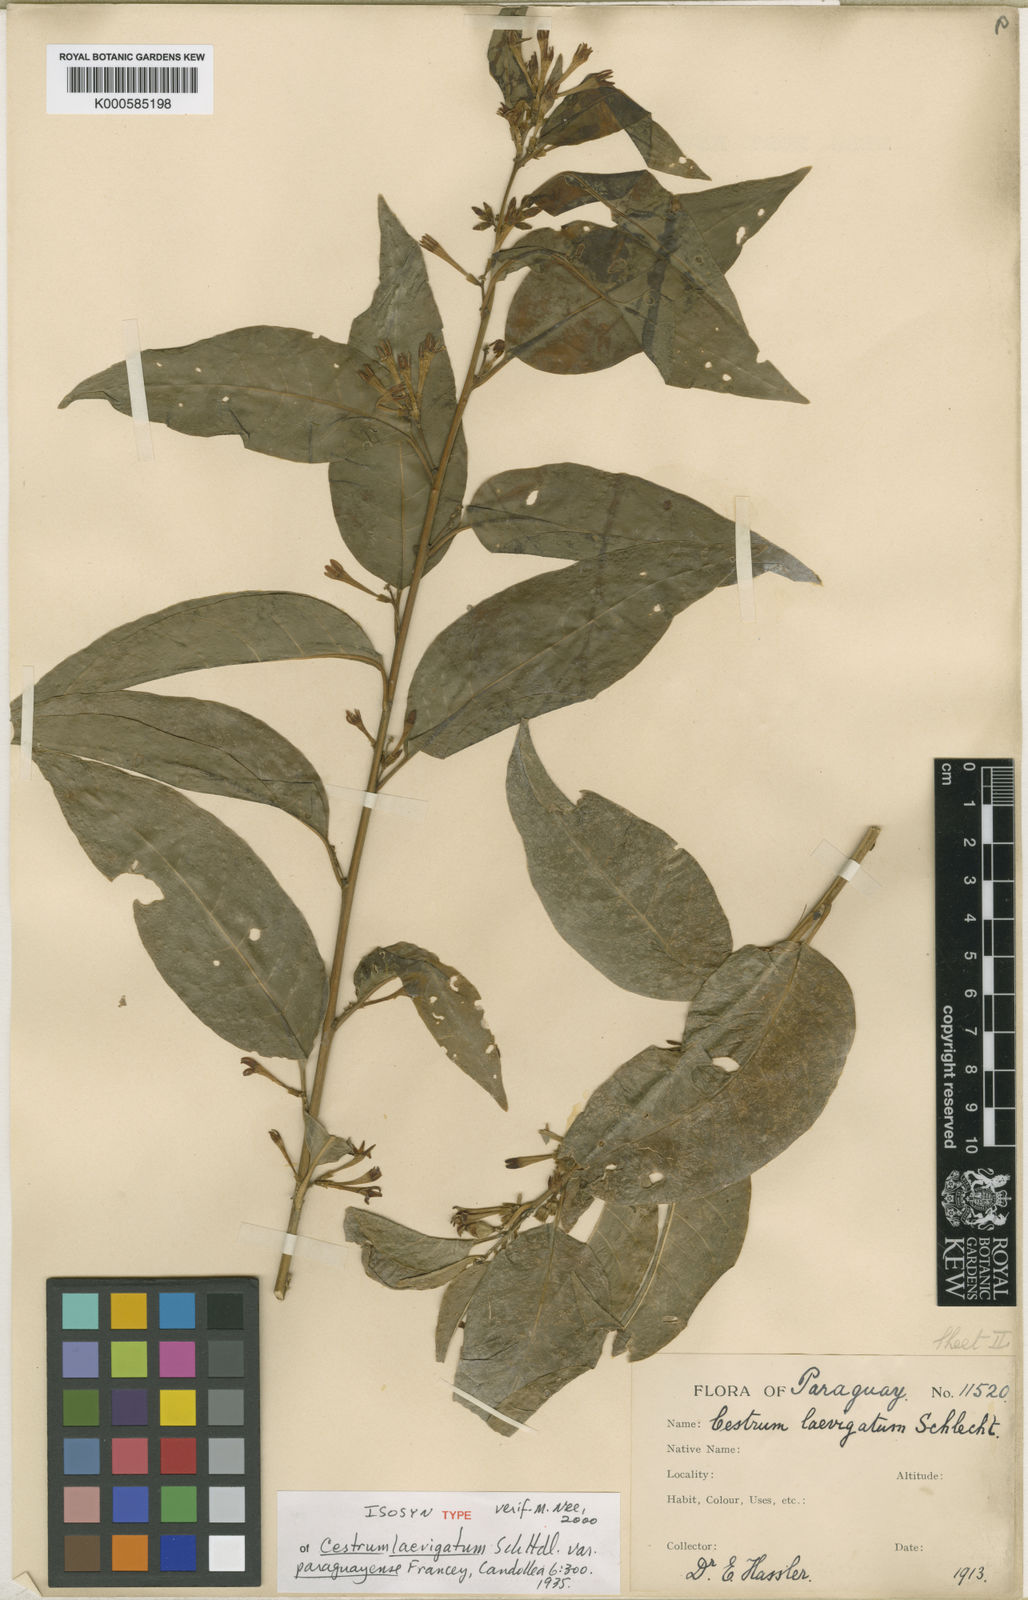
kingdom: Plantae
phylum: Tracheophyta
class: Magnoliopsida
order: Solanales
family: Solanaceae
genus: Cestrum
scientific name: Cestrum laevigatum
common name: Inkberry
